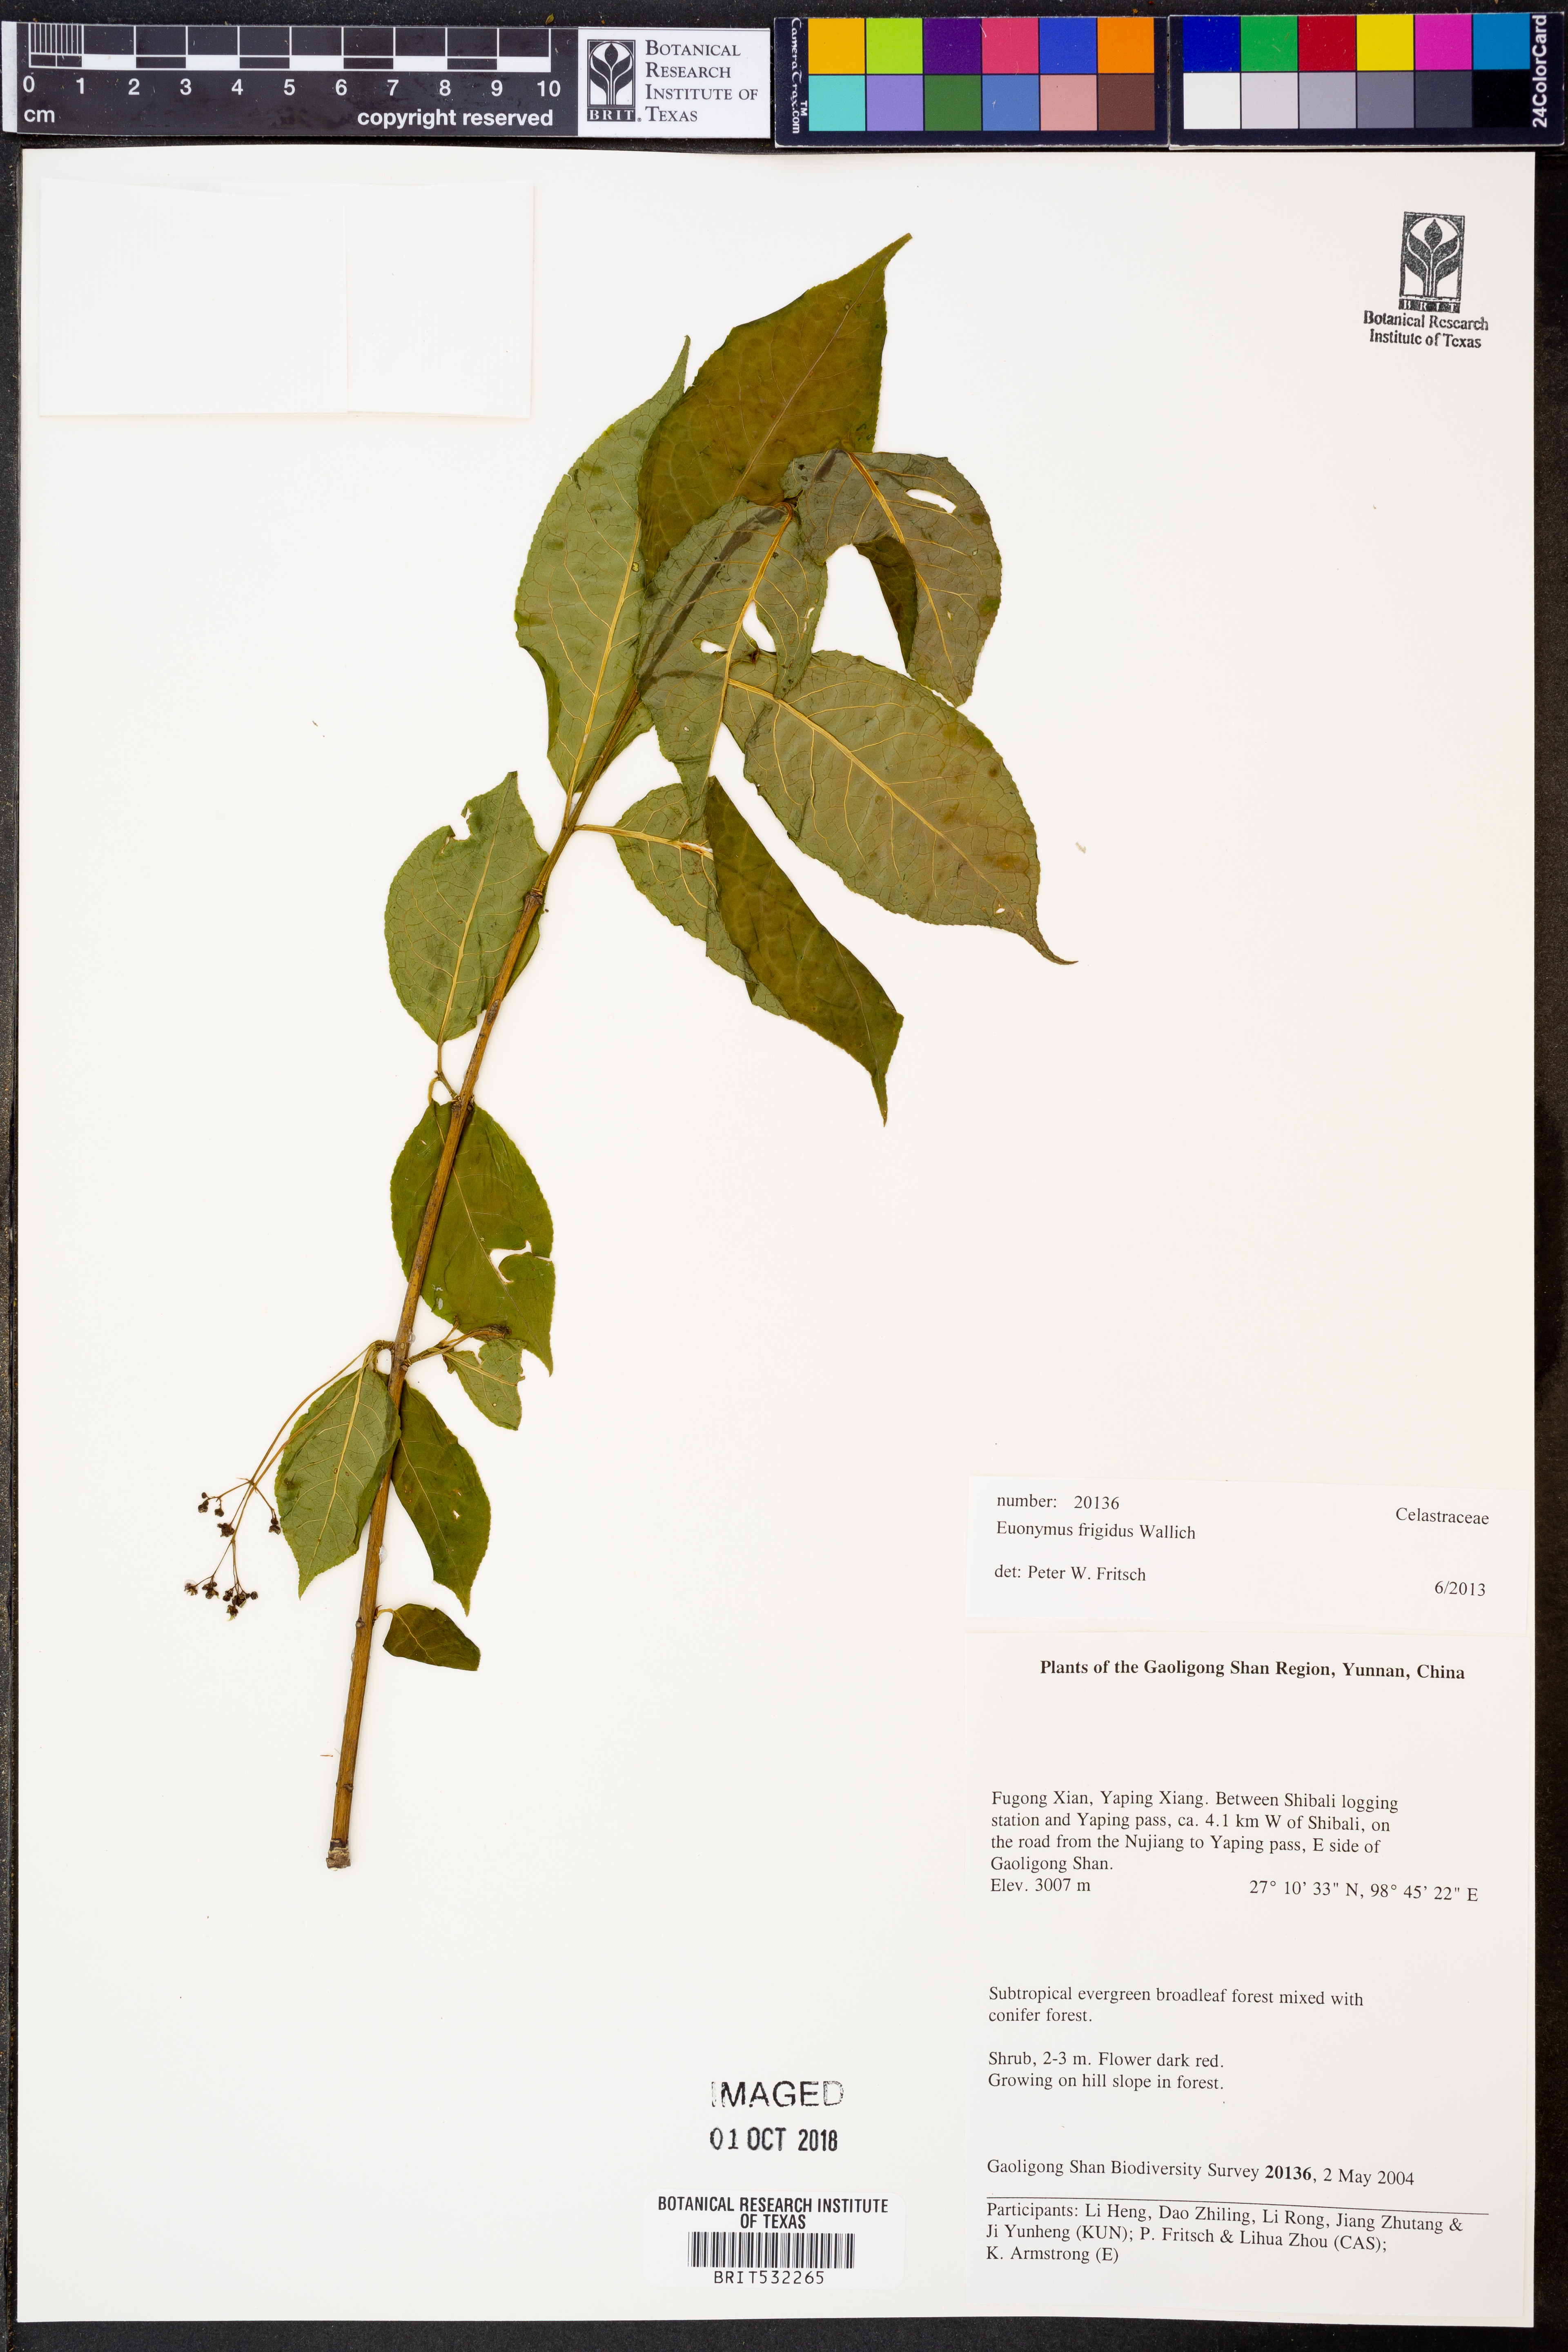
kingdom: Plantae
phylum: Tracheophyta
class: Magnoliopsida
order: Celastrales
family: Celastraceae
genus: Euonymus
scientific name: Euonymus frigidus
